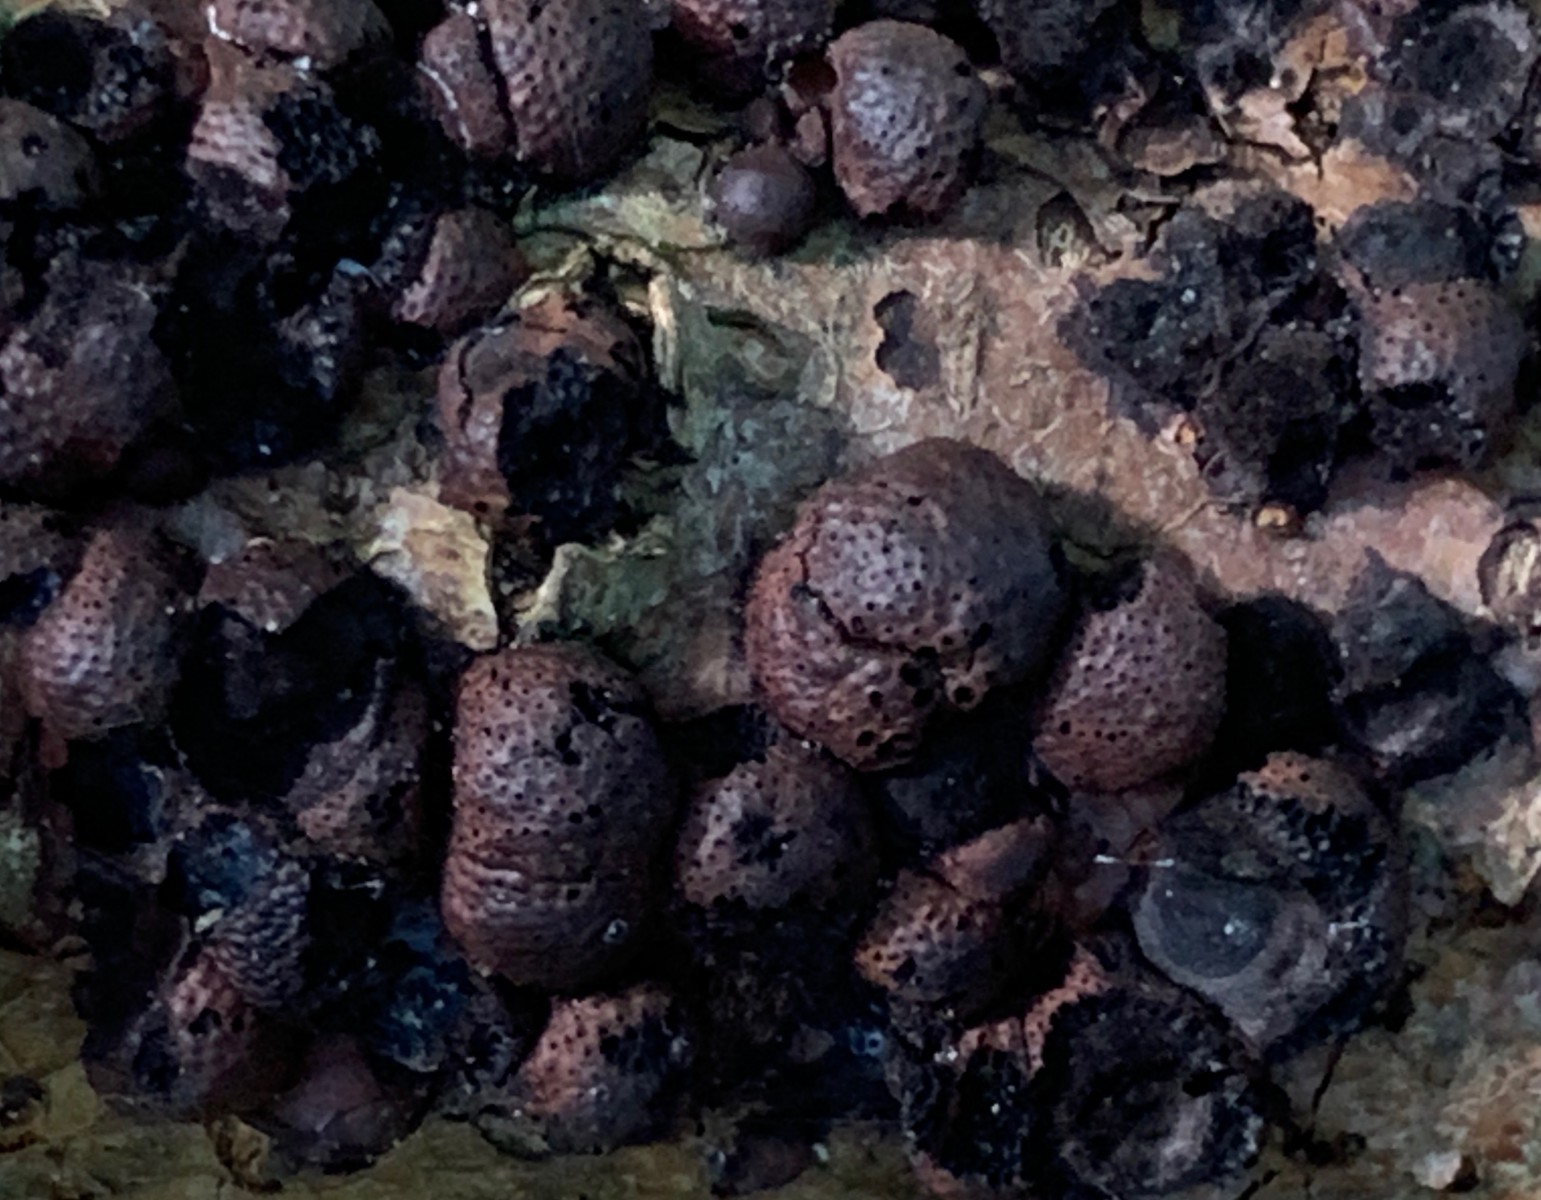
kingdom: Fungi
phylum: Ascomycota
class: Sordariomycetes
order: Xylariales
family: Hypoxylaceae
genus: Hypoxylon
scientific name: Hypoxylon fragiforme
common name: kuljordbær
